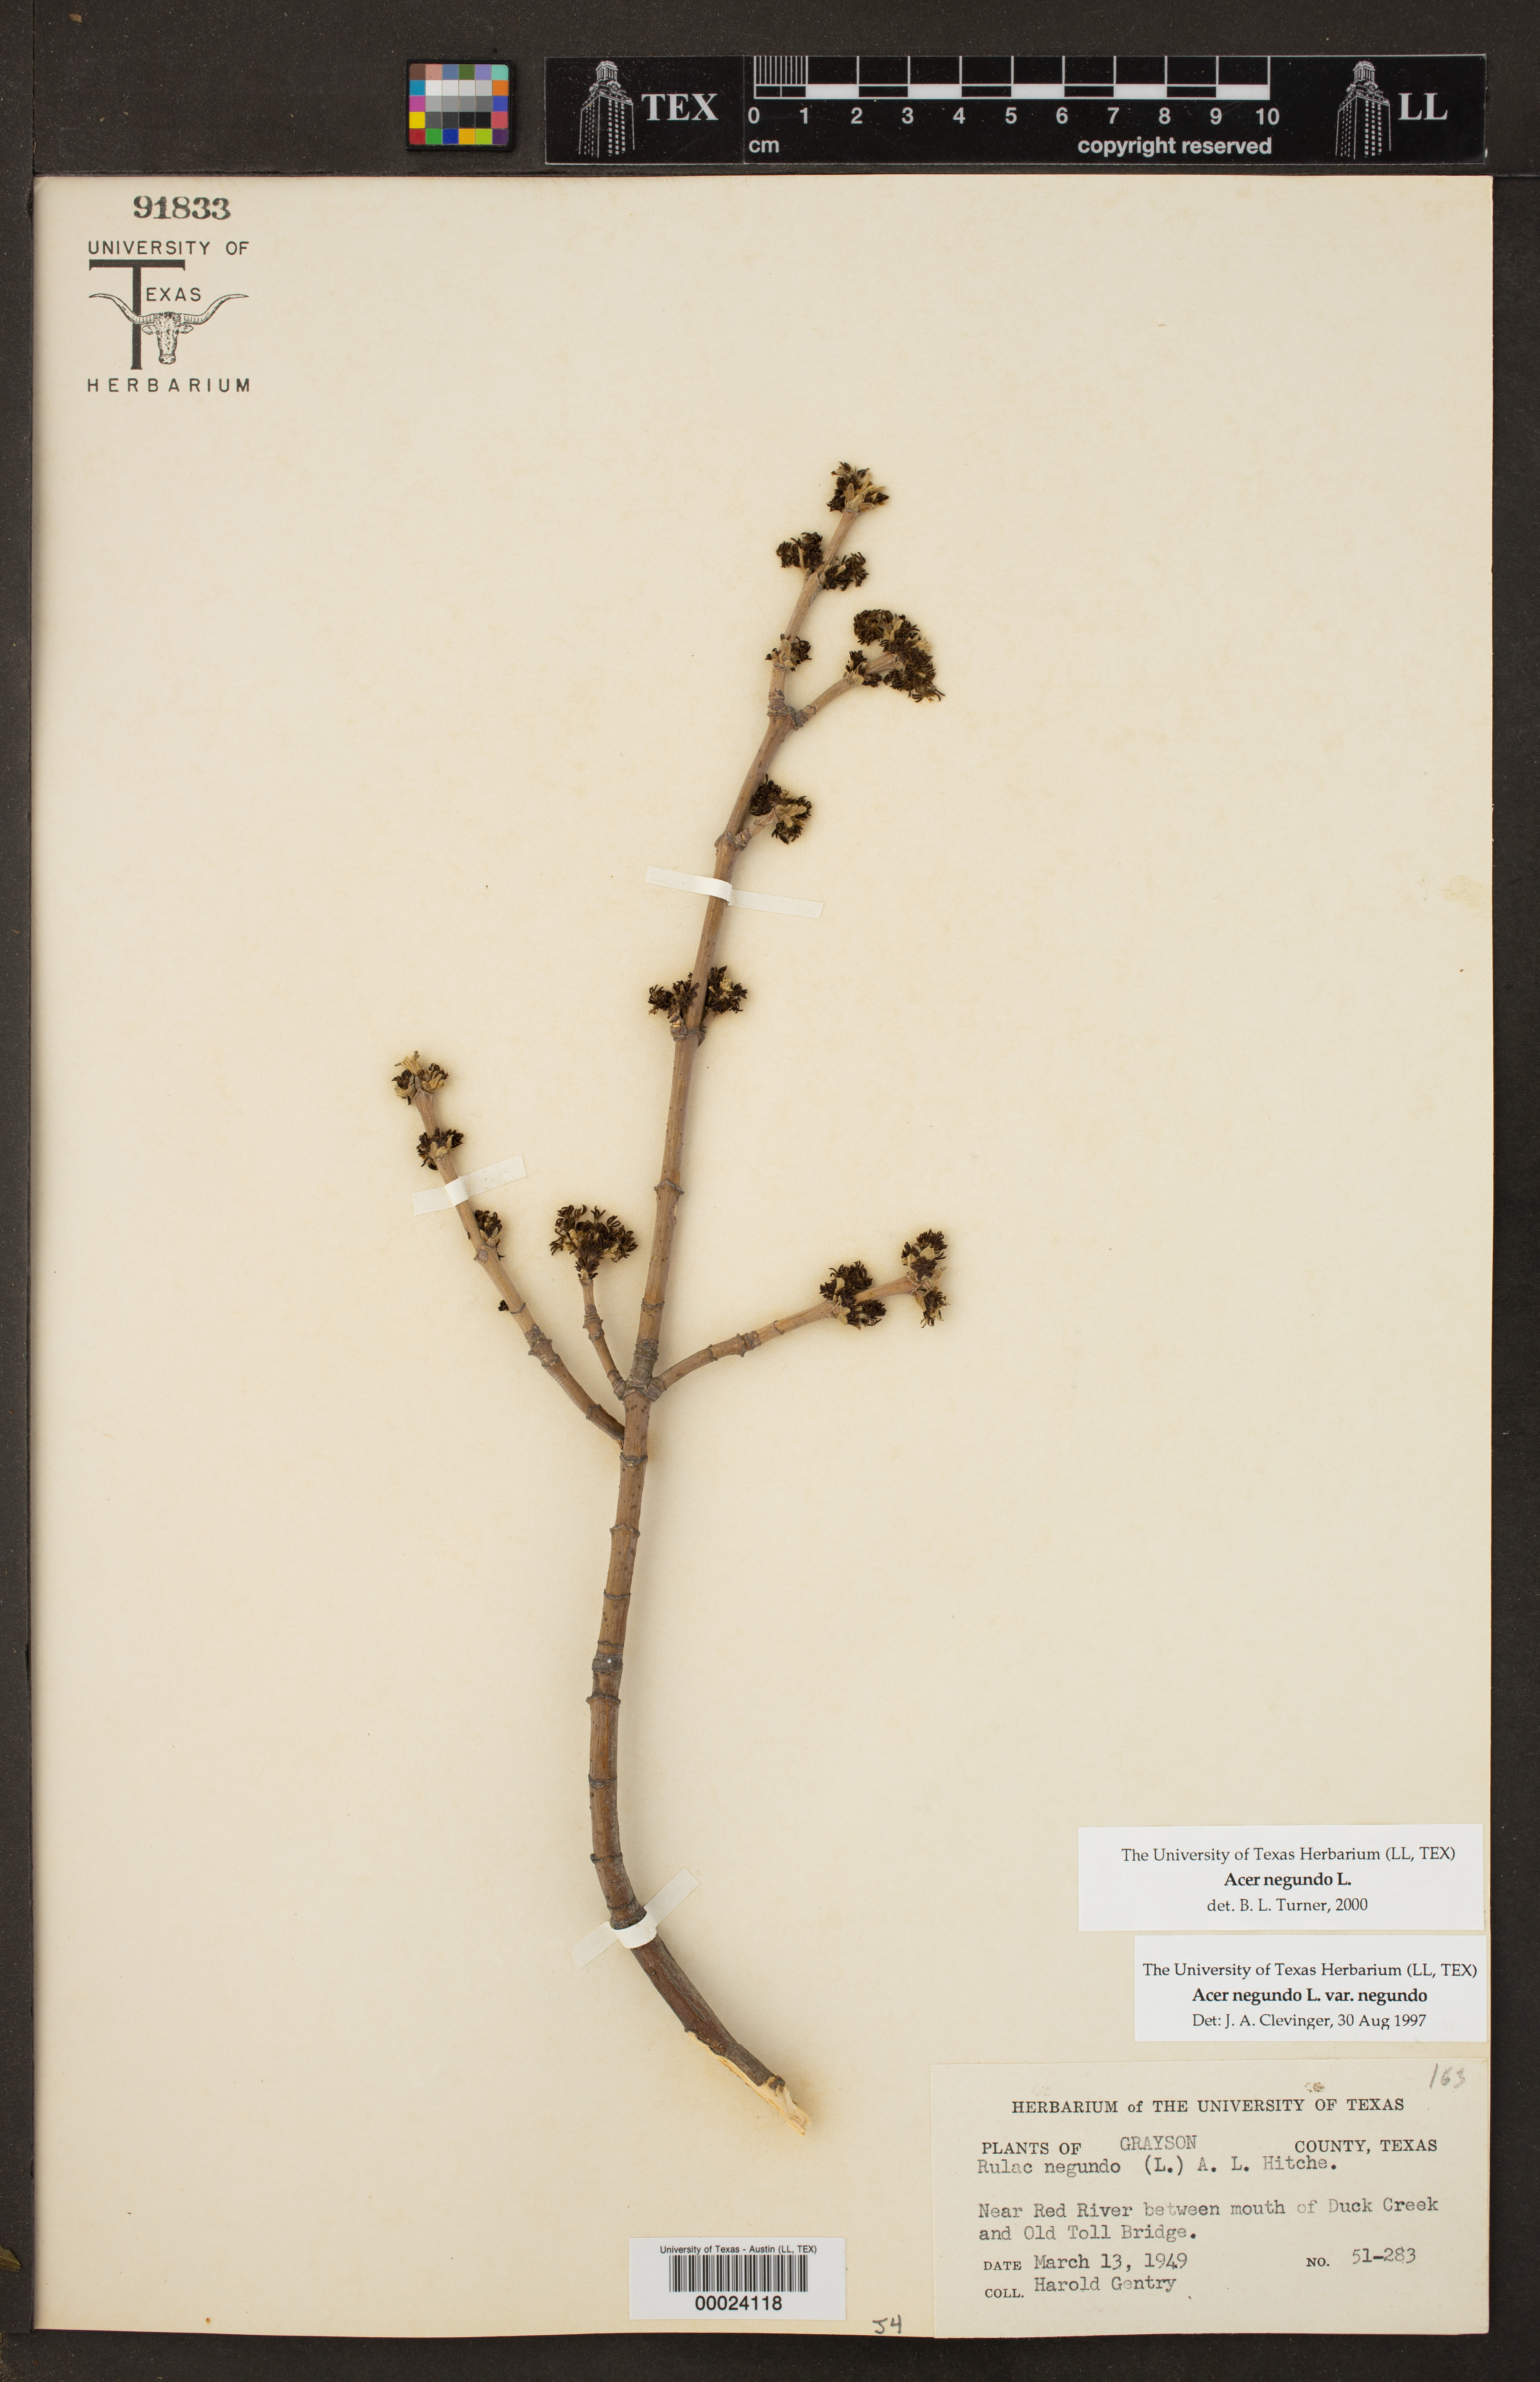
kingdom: Plantae
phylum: Tracheophyta
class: Magnoliopsida
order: Sapindales
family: Sapindaceae
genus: Acer
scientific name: Acer negundo
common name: Ashleaf maple
